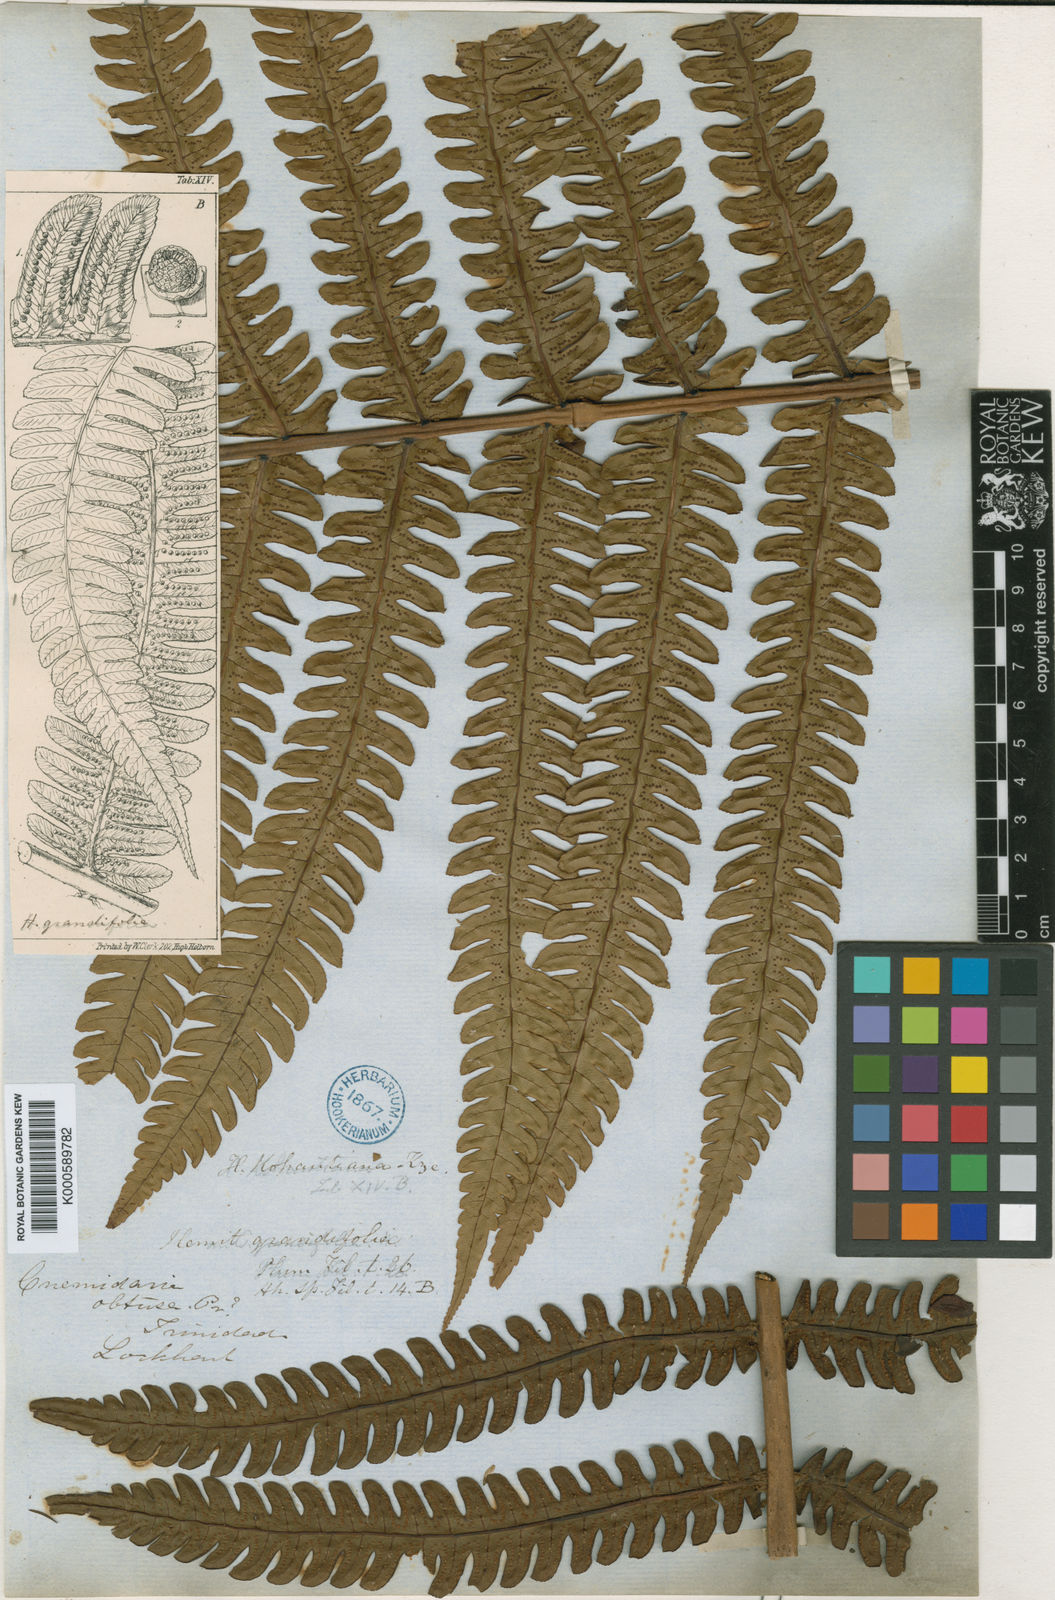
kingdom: Plantae
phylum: Tracheophyta
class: Polypodiopsida
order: Cyatheales
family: Cyatheaceae
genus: Cyathea
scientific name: Cyathea grandifolia
